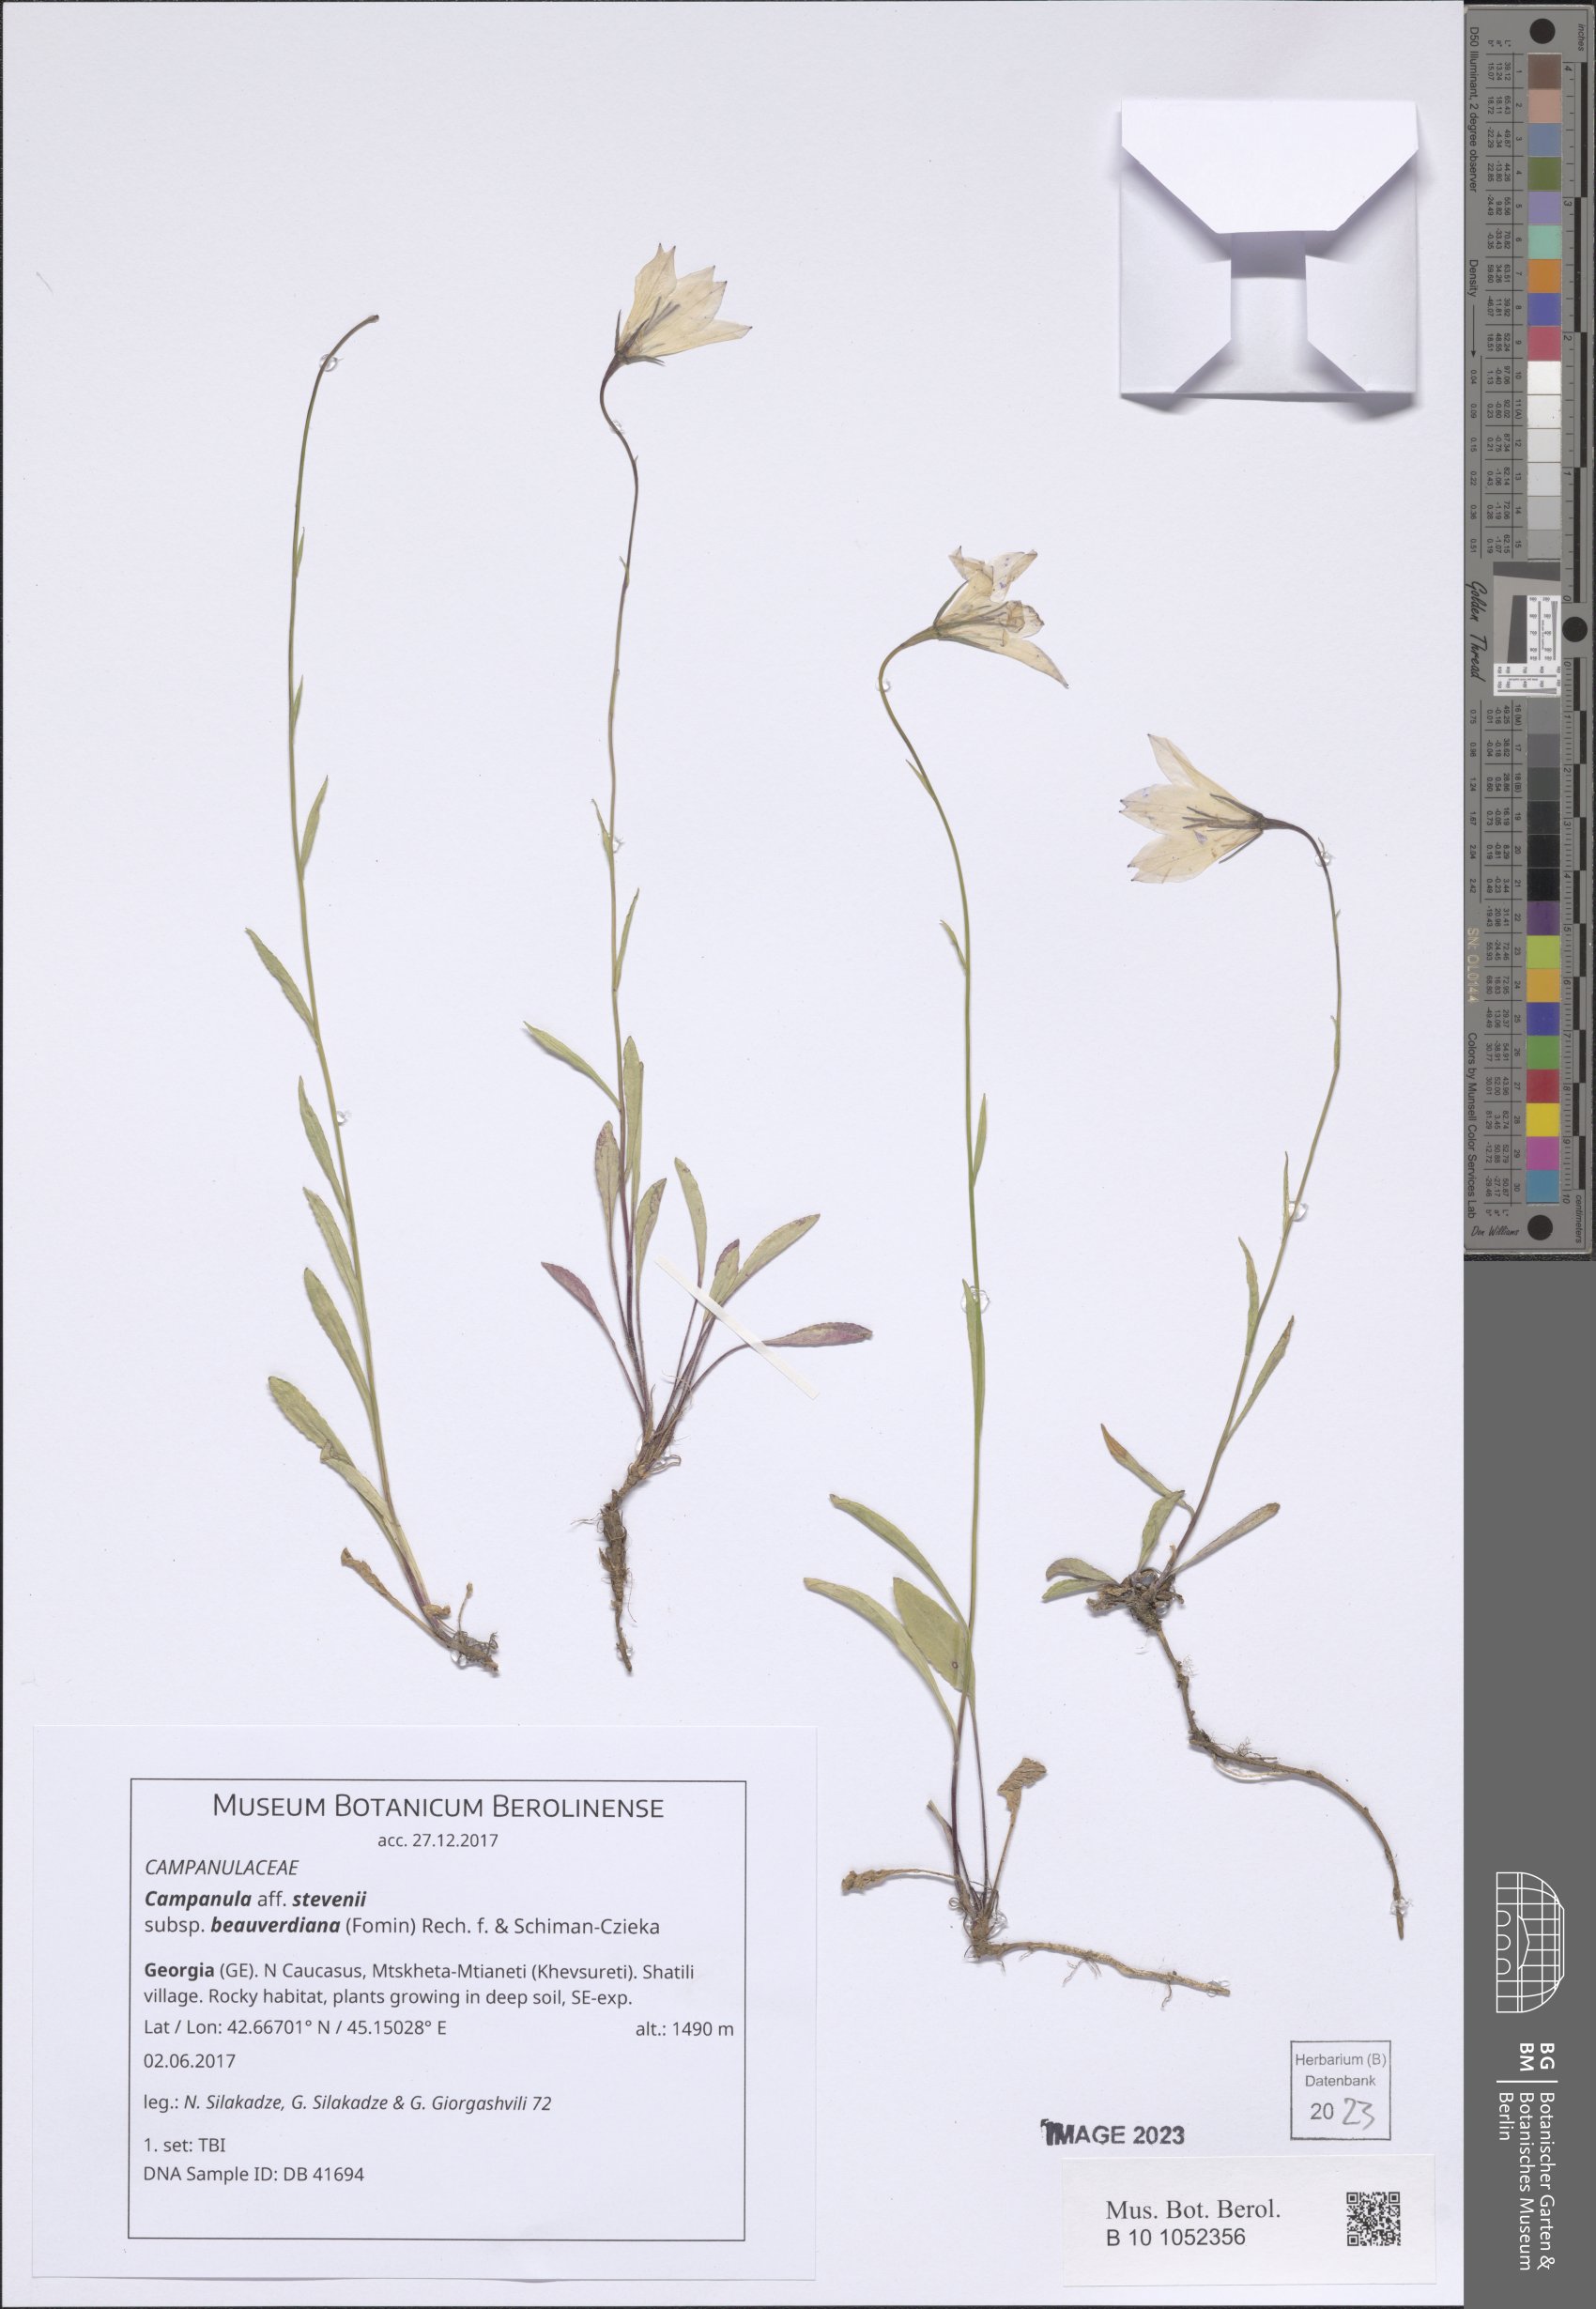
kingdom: Plantae
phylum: Tracheophyta
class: Magnoliopsida
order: Asterales
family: Campanulaceae
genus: Campanula
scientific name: Campanula stevenii
